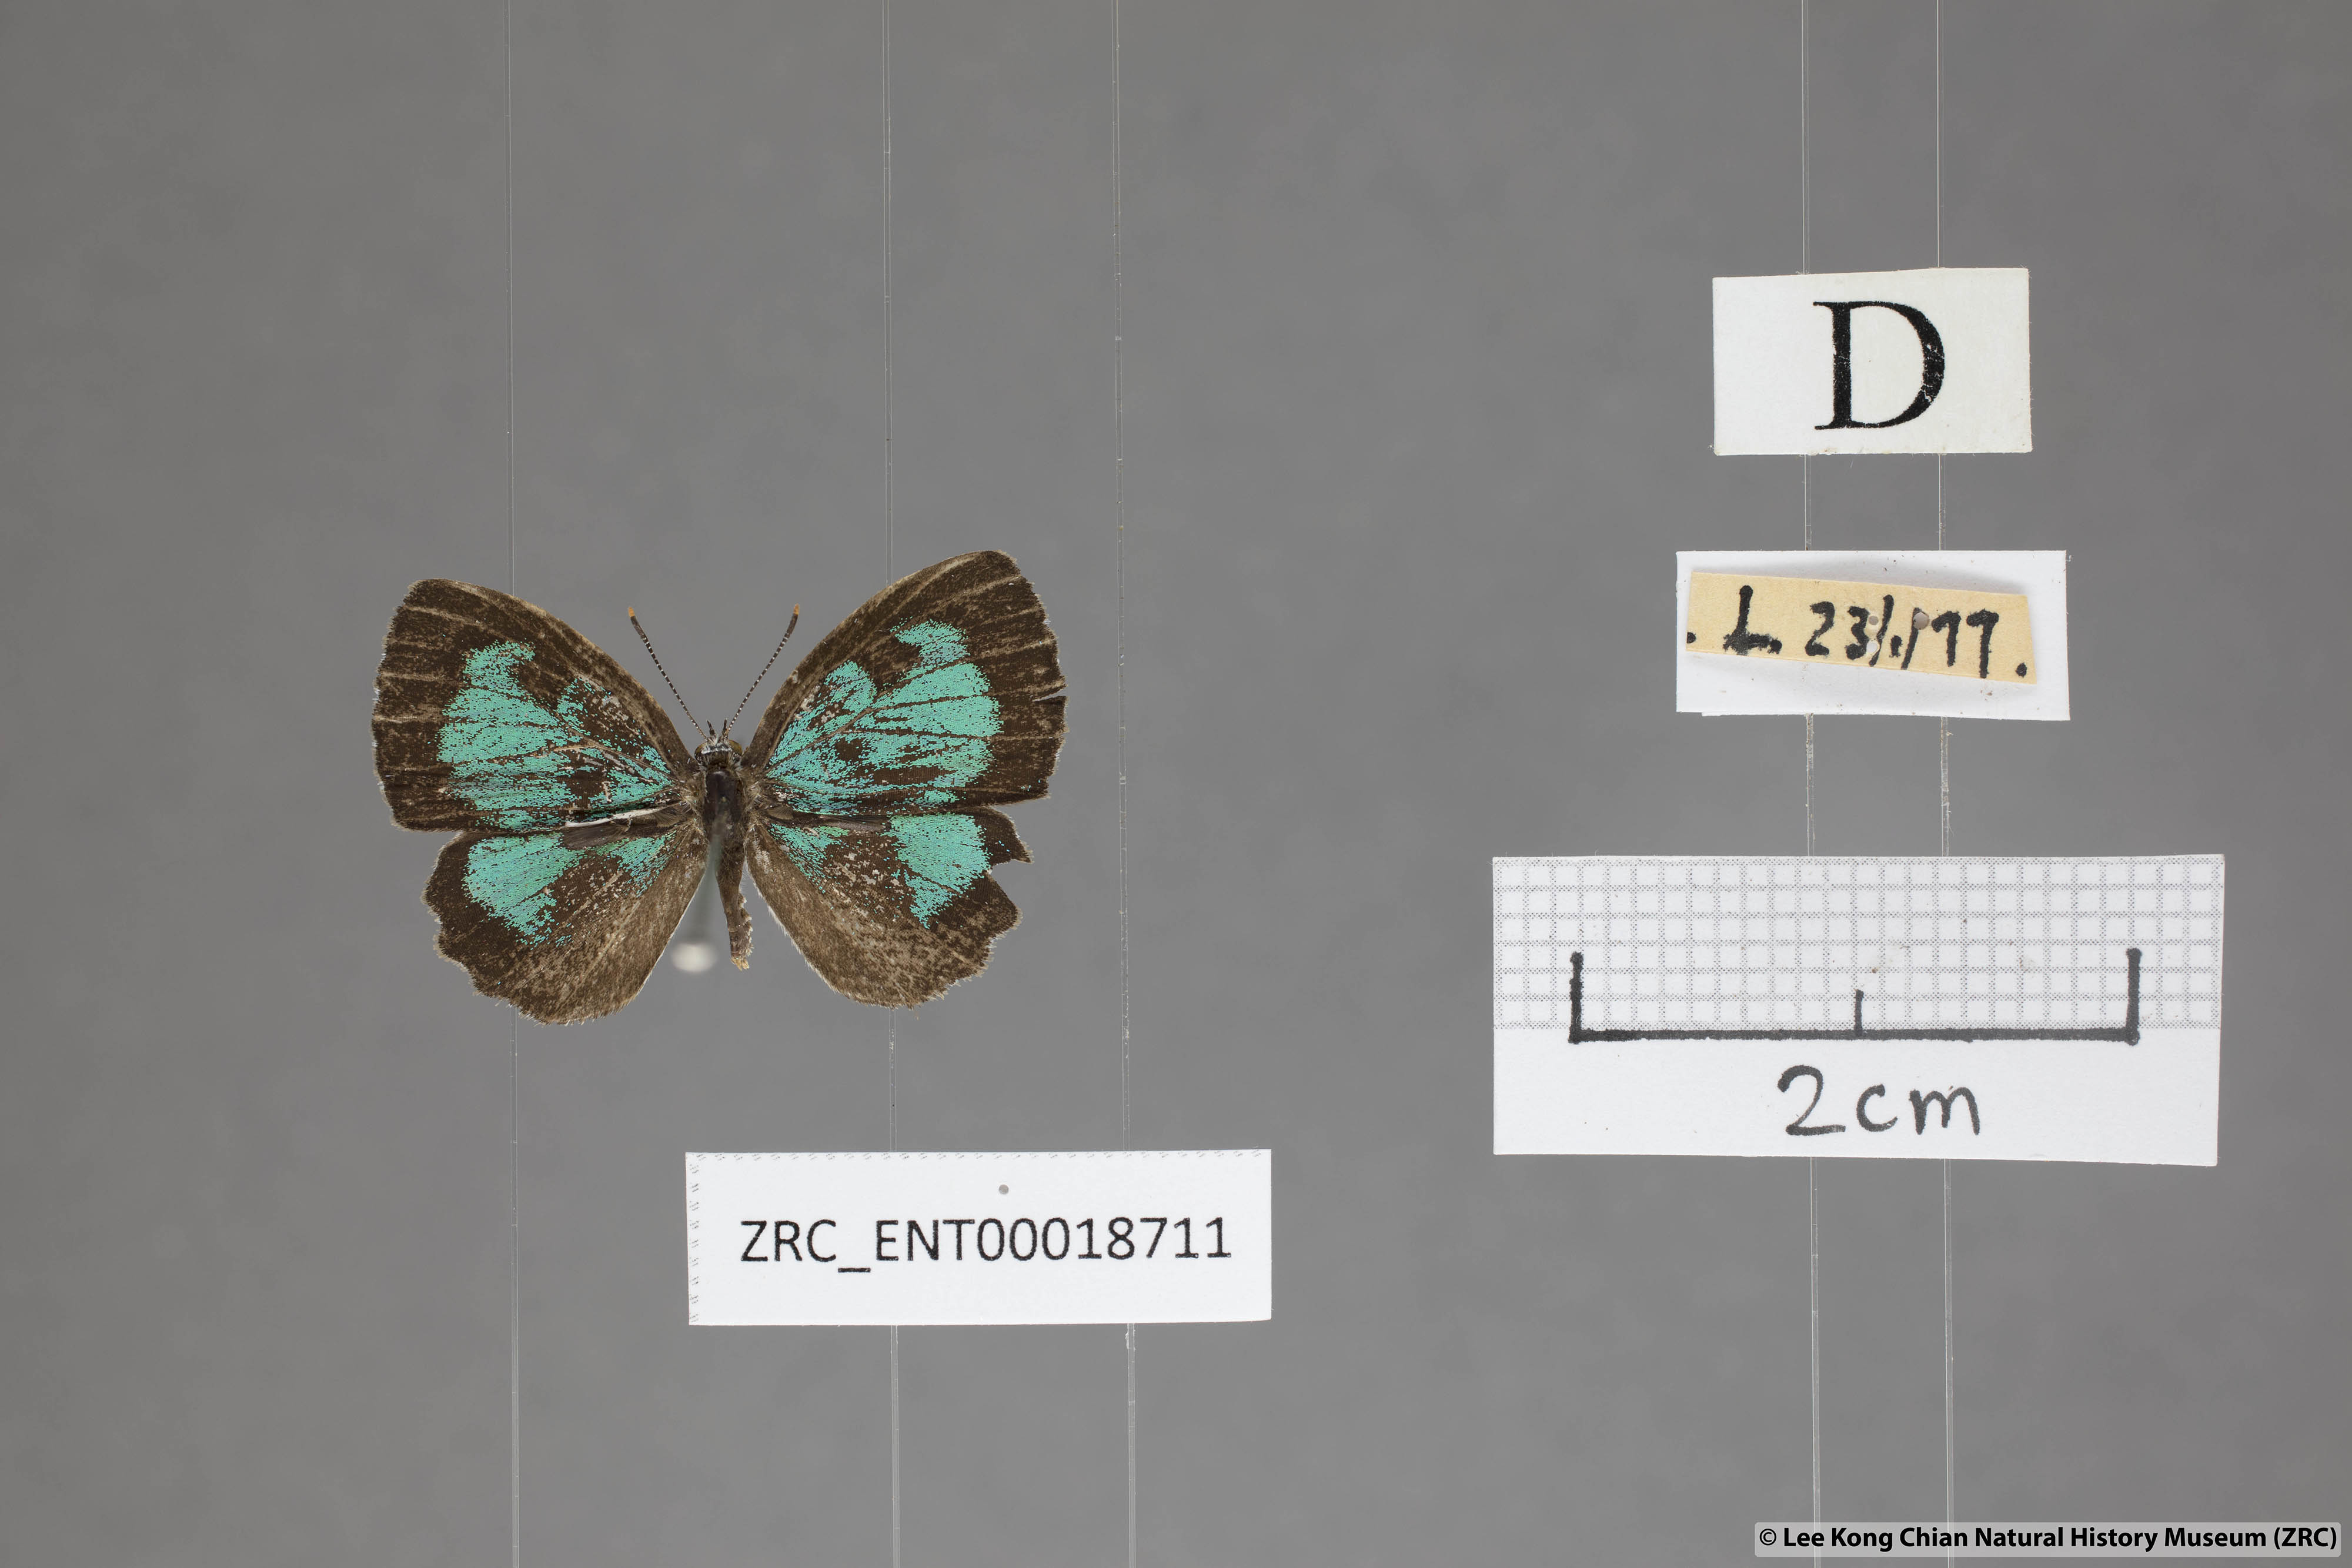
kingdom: Animalia
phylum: Arthropoda
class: Insecta
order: Lepidoptera
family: Lycaenidae
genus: Cyaniriodes
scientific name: Cyaniriodes libna
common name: Emerald
